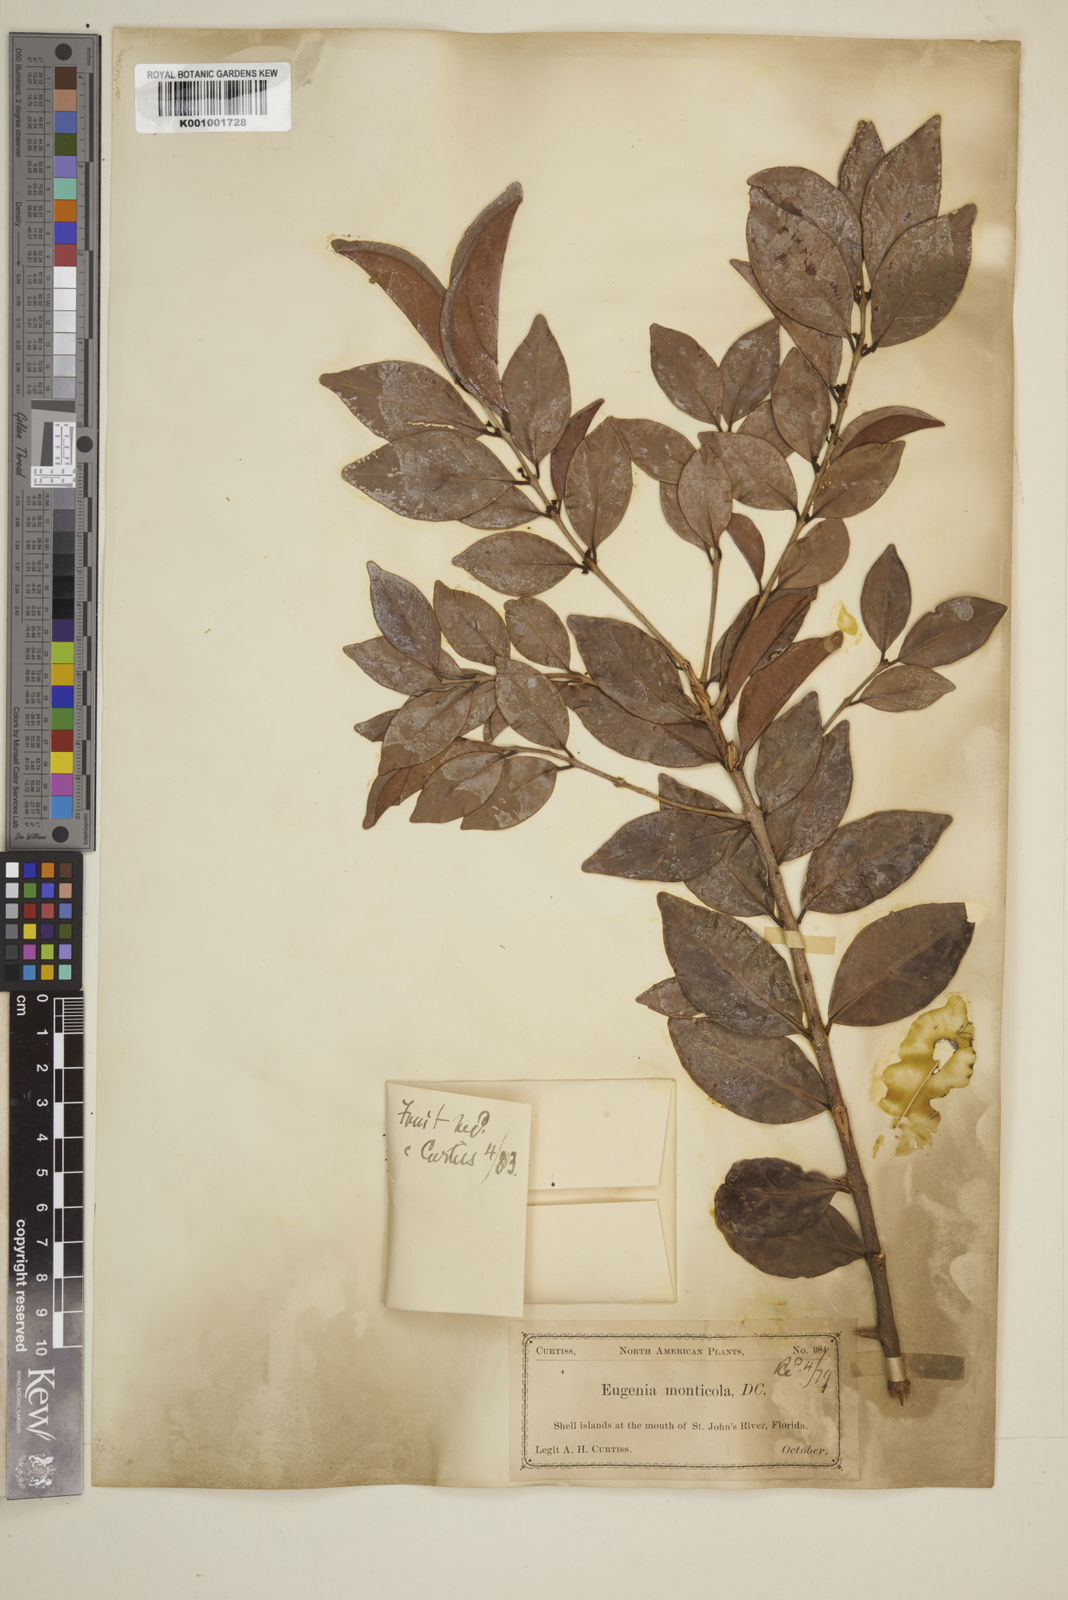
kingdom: Plantae
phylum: Tracheophyta
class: Magnoliopsida
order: Myrtales
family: Myrtaceae
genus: Eugenia
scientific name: Eugenia monticola
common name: Birds berry
